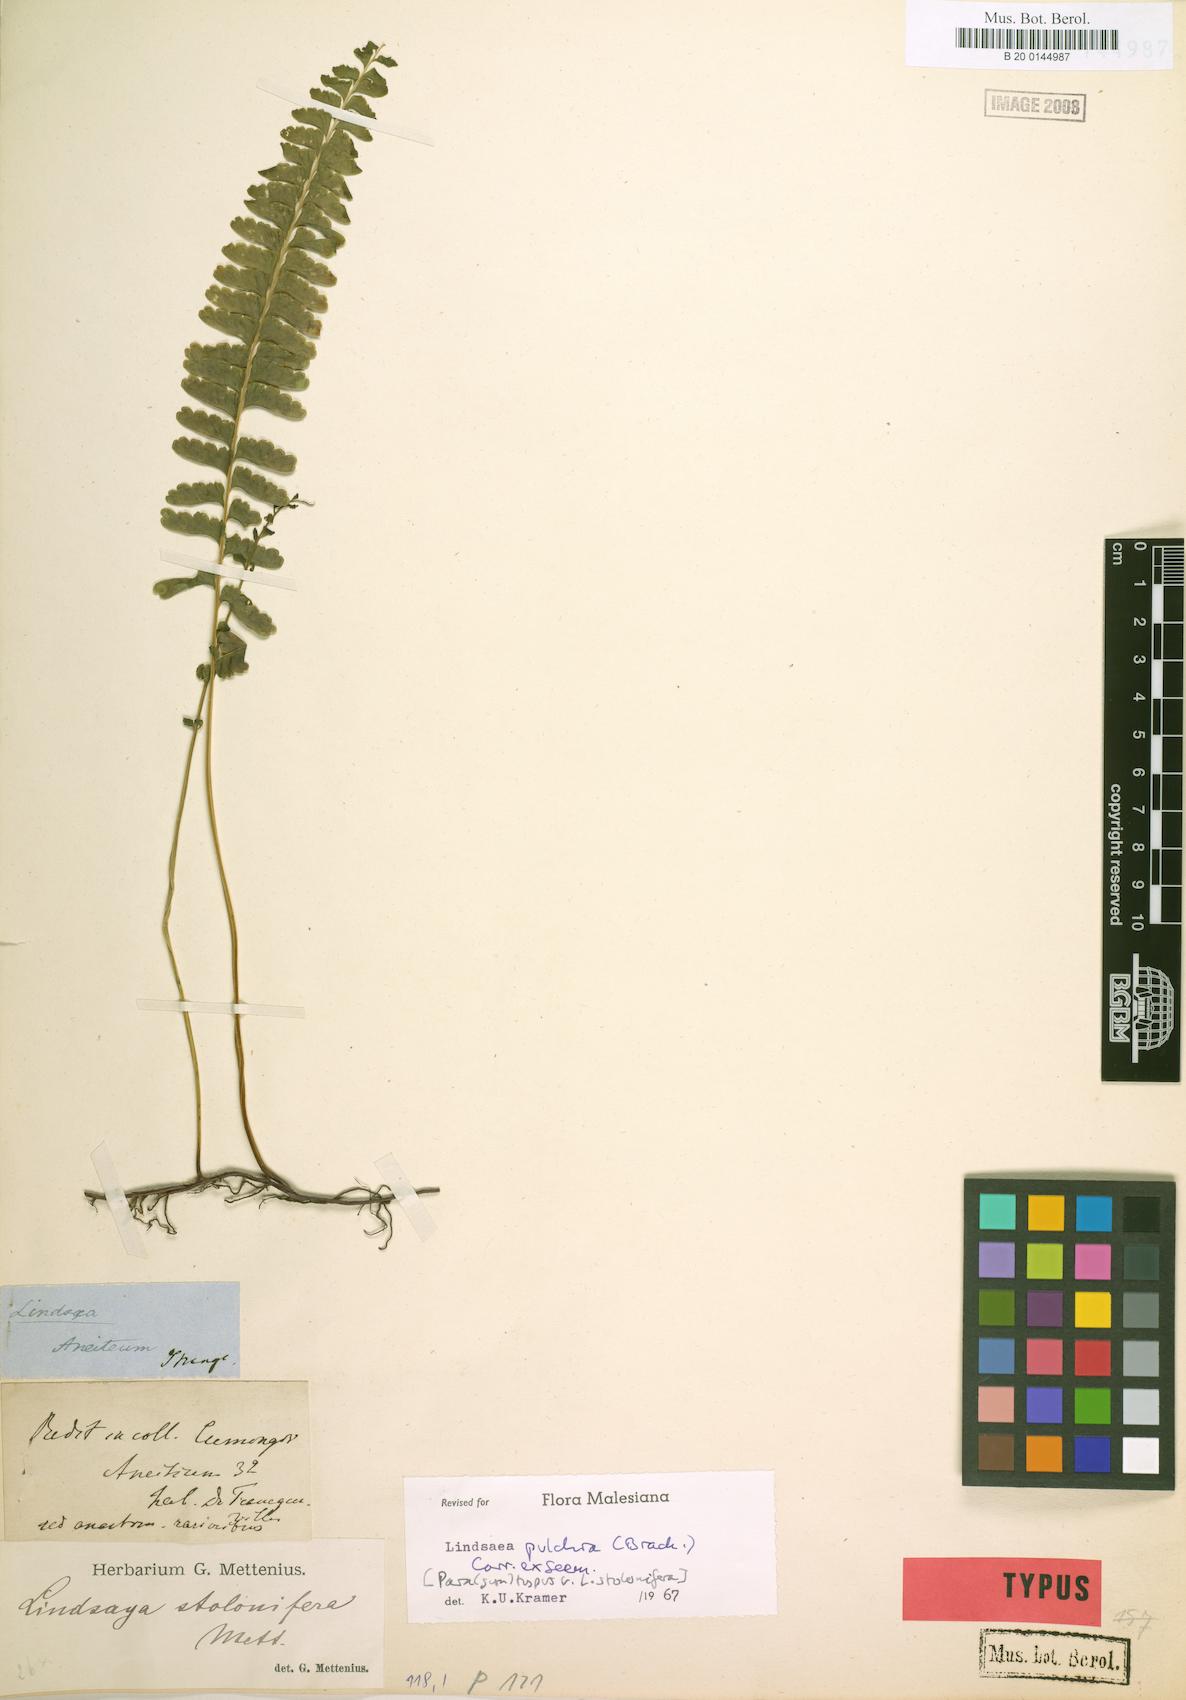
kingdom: Plantae
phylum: Tracheophyta
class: Polypodiopsida
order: Polypodiales
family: Lindsaeaceae
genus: Lindsaea
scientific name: Lindsaea pulchra
